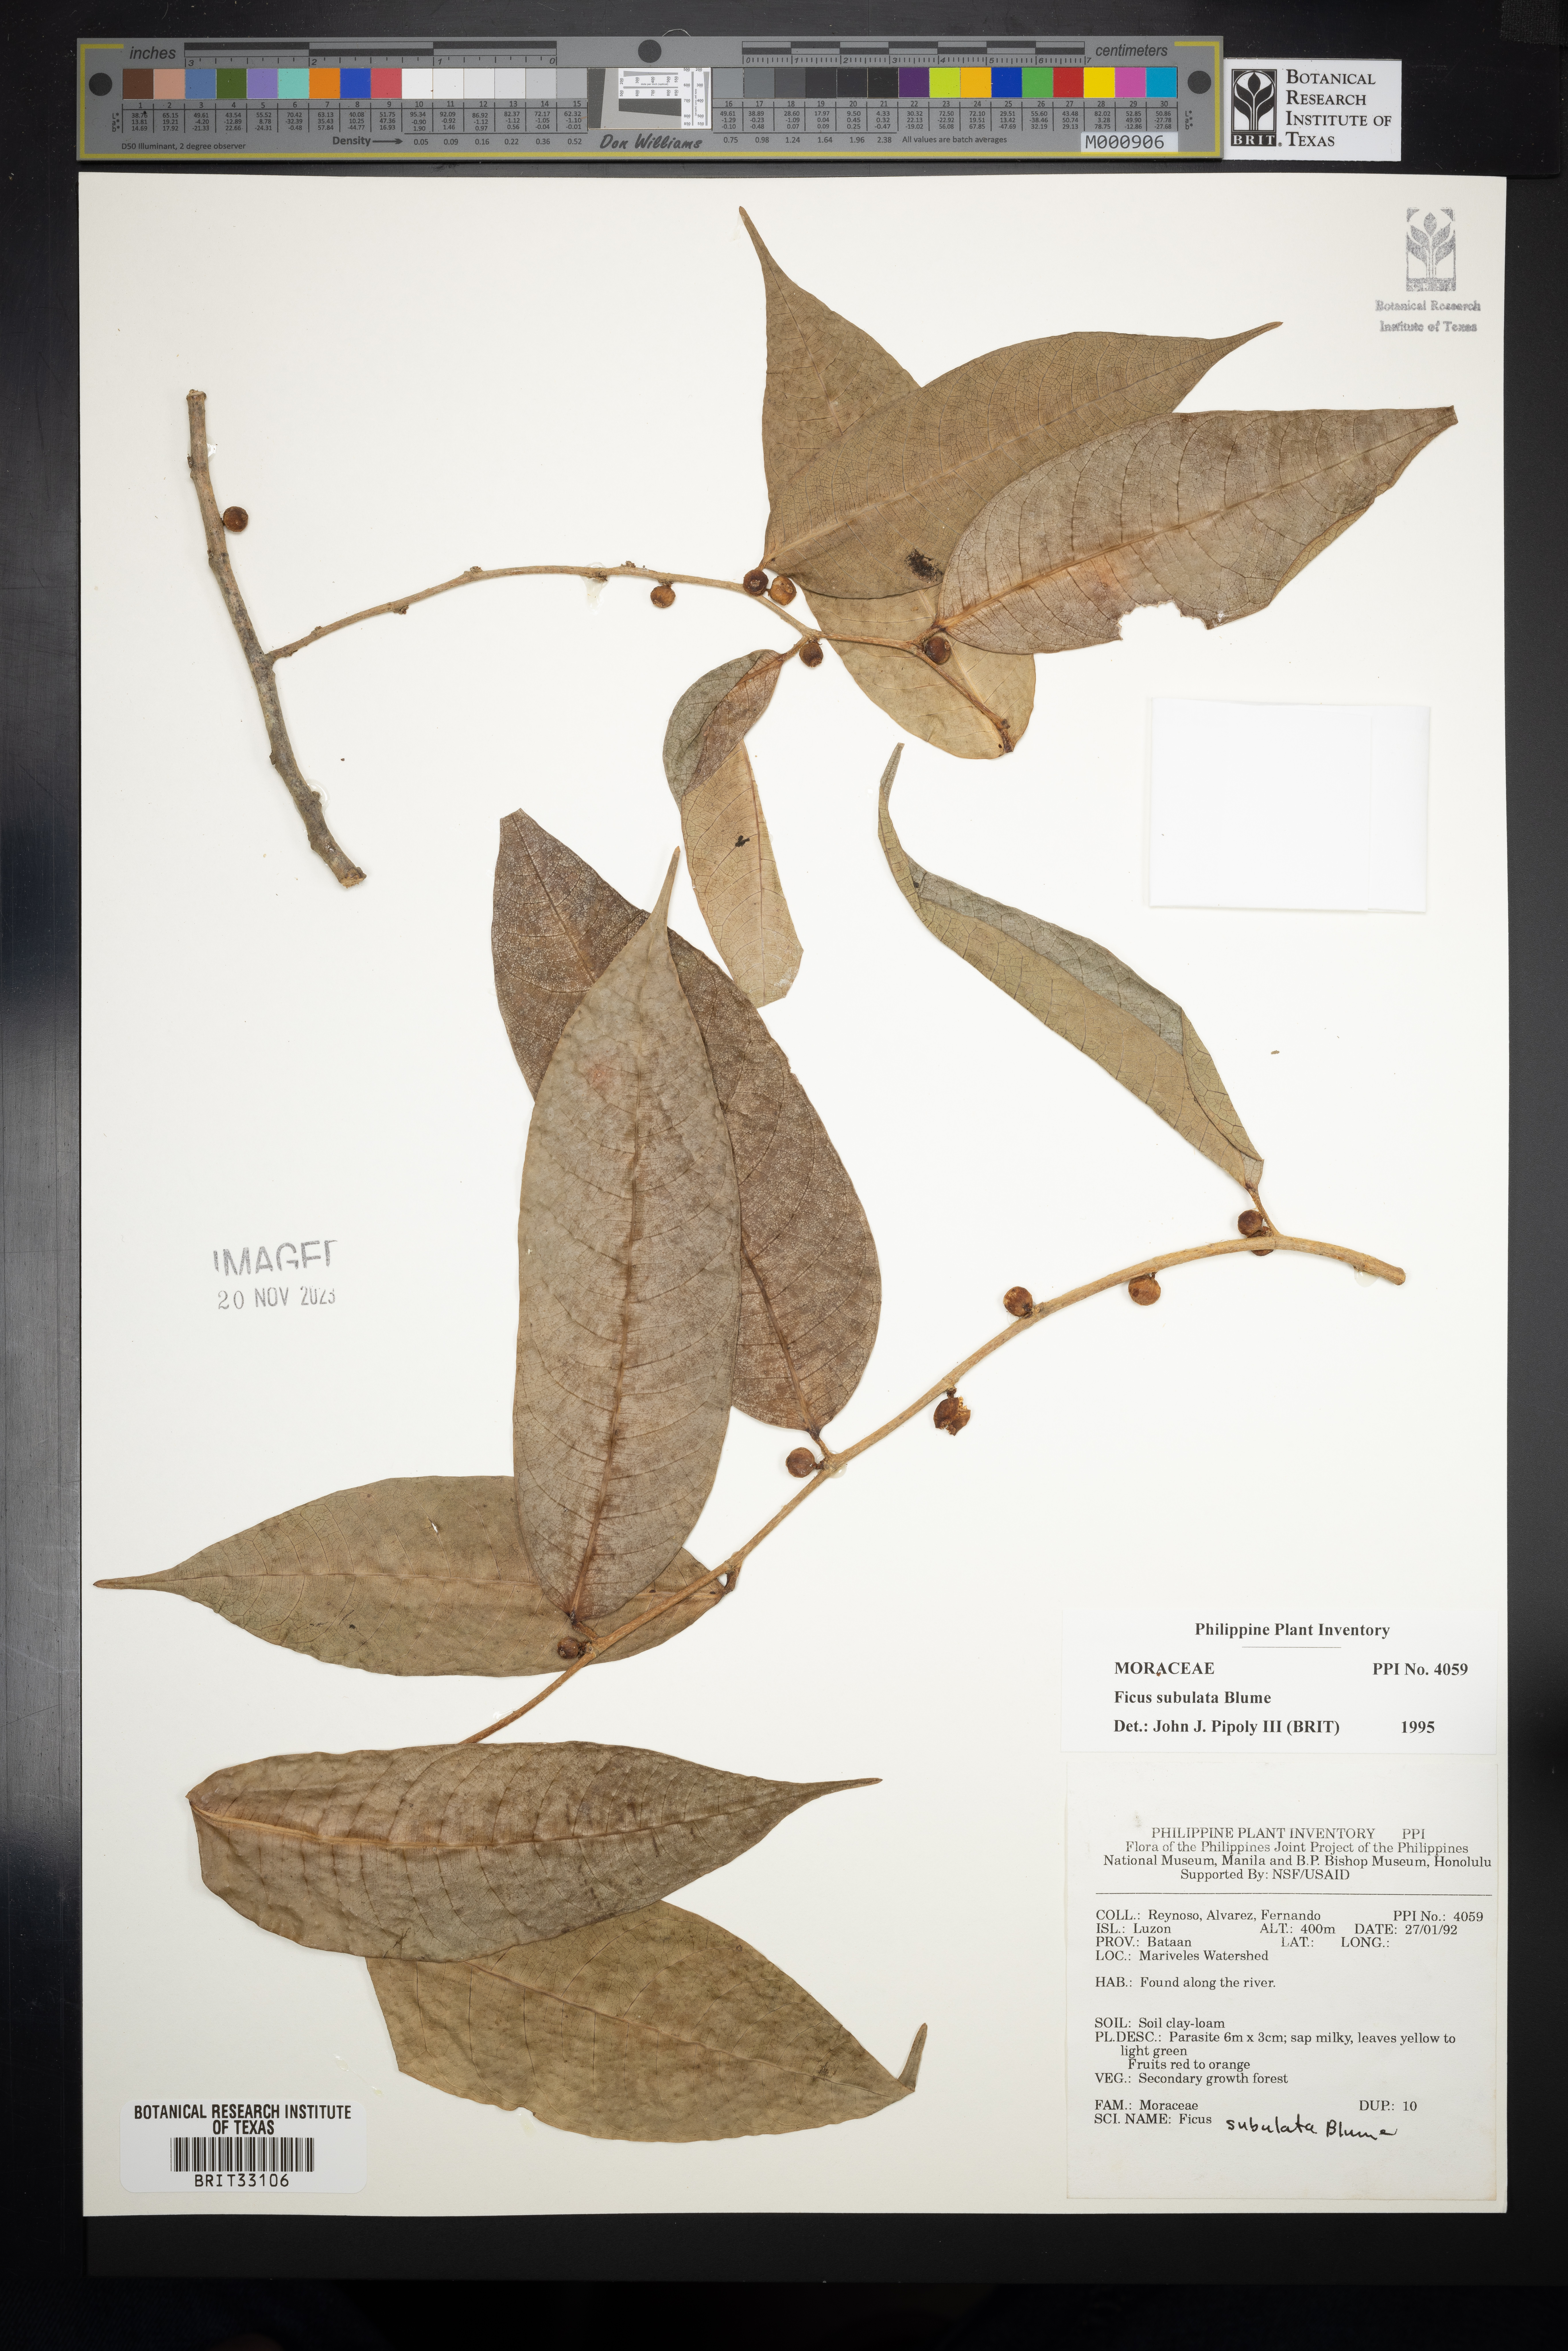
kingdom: Plantae
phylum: Tracheophyta
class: Magnoliopsida
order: Rosales
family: Moraceae
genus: Ficus
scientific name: Ficus subulata
